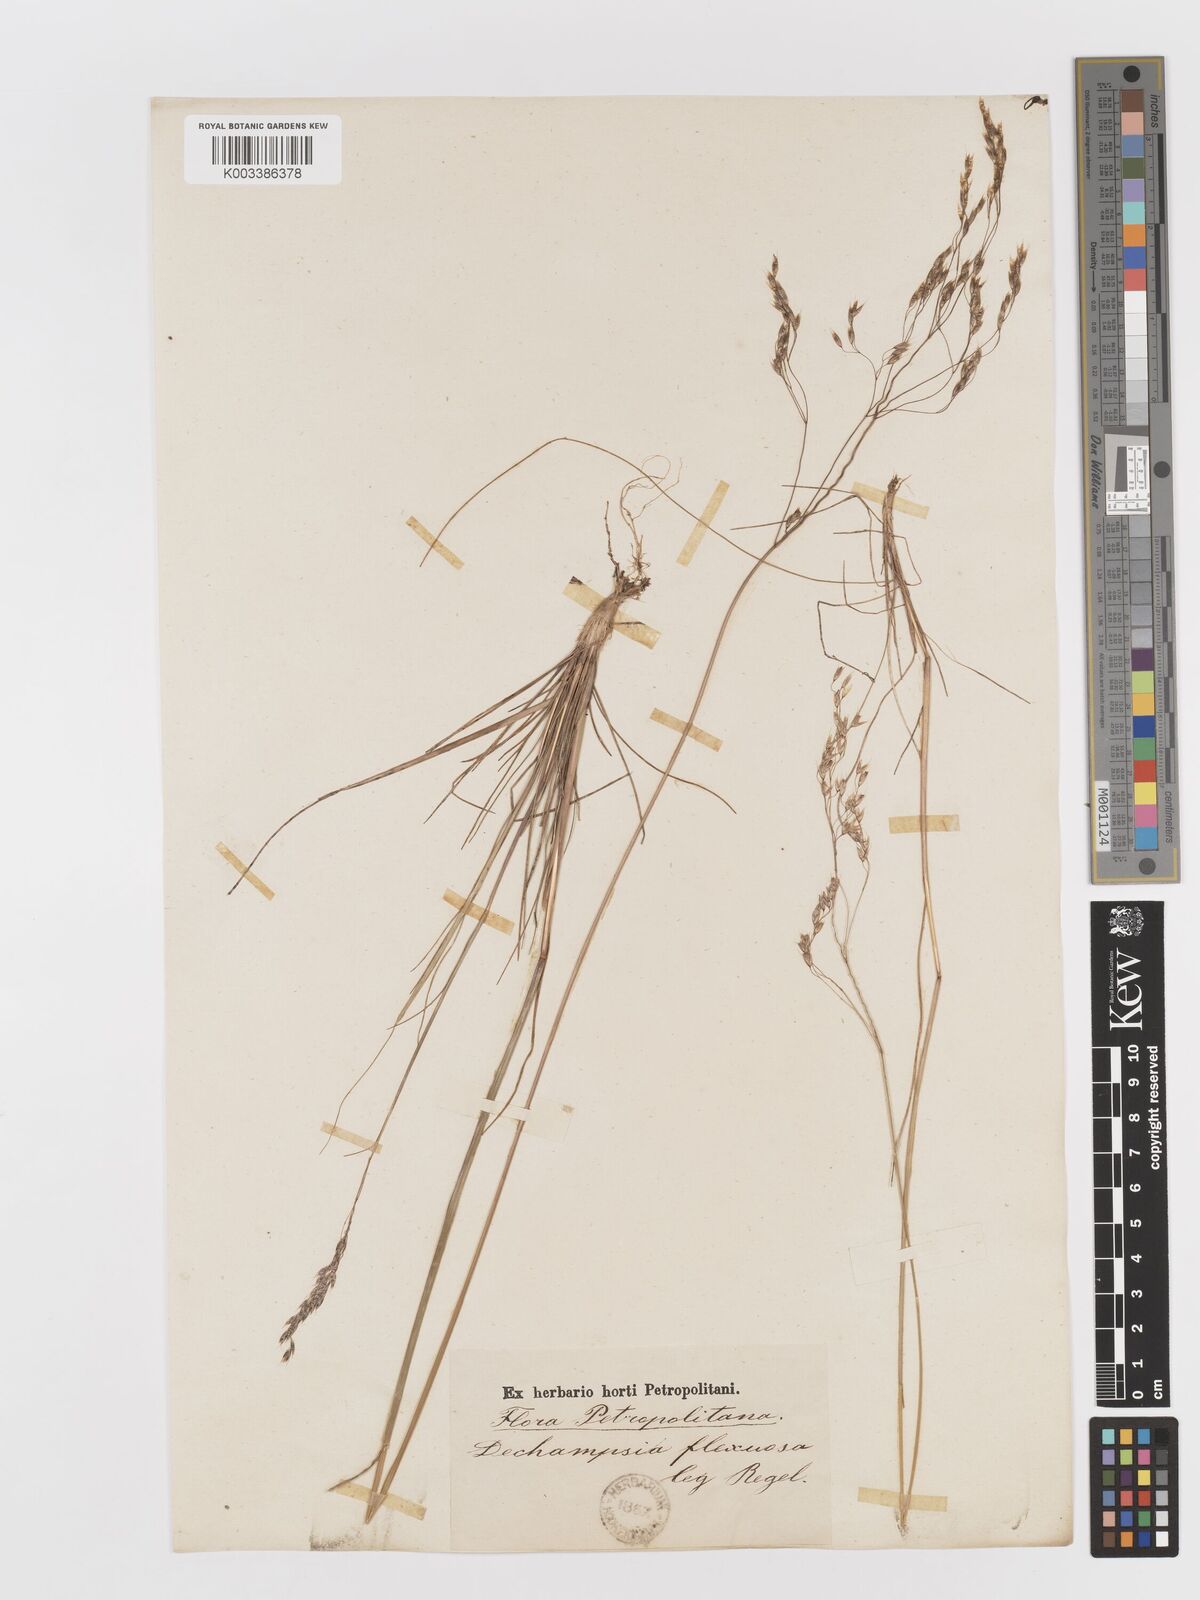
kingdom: Plantae
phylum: Tracheophyta
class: Liliopsida
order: Poales
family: Poaceae
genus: Avenella
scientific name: Avenella flexuosa
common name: Wavy hairgrass
